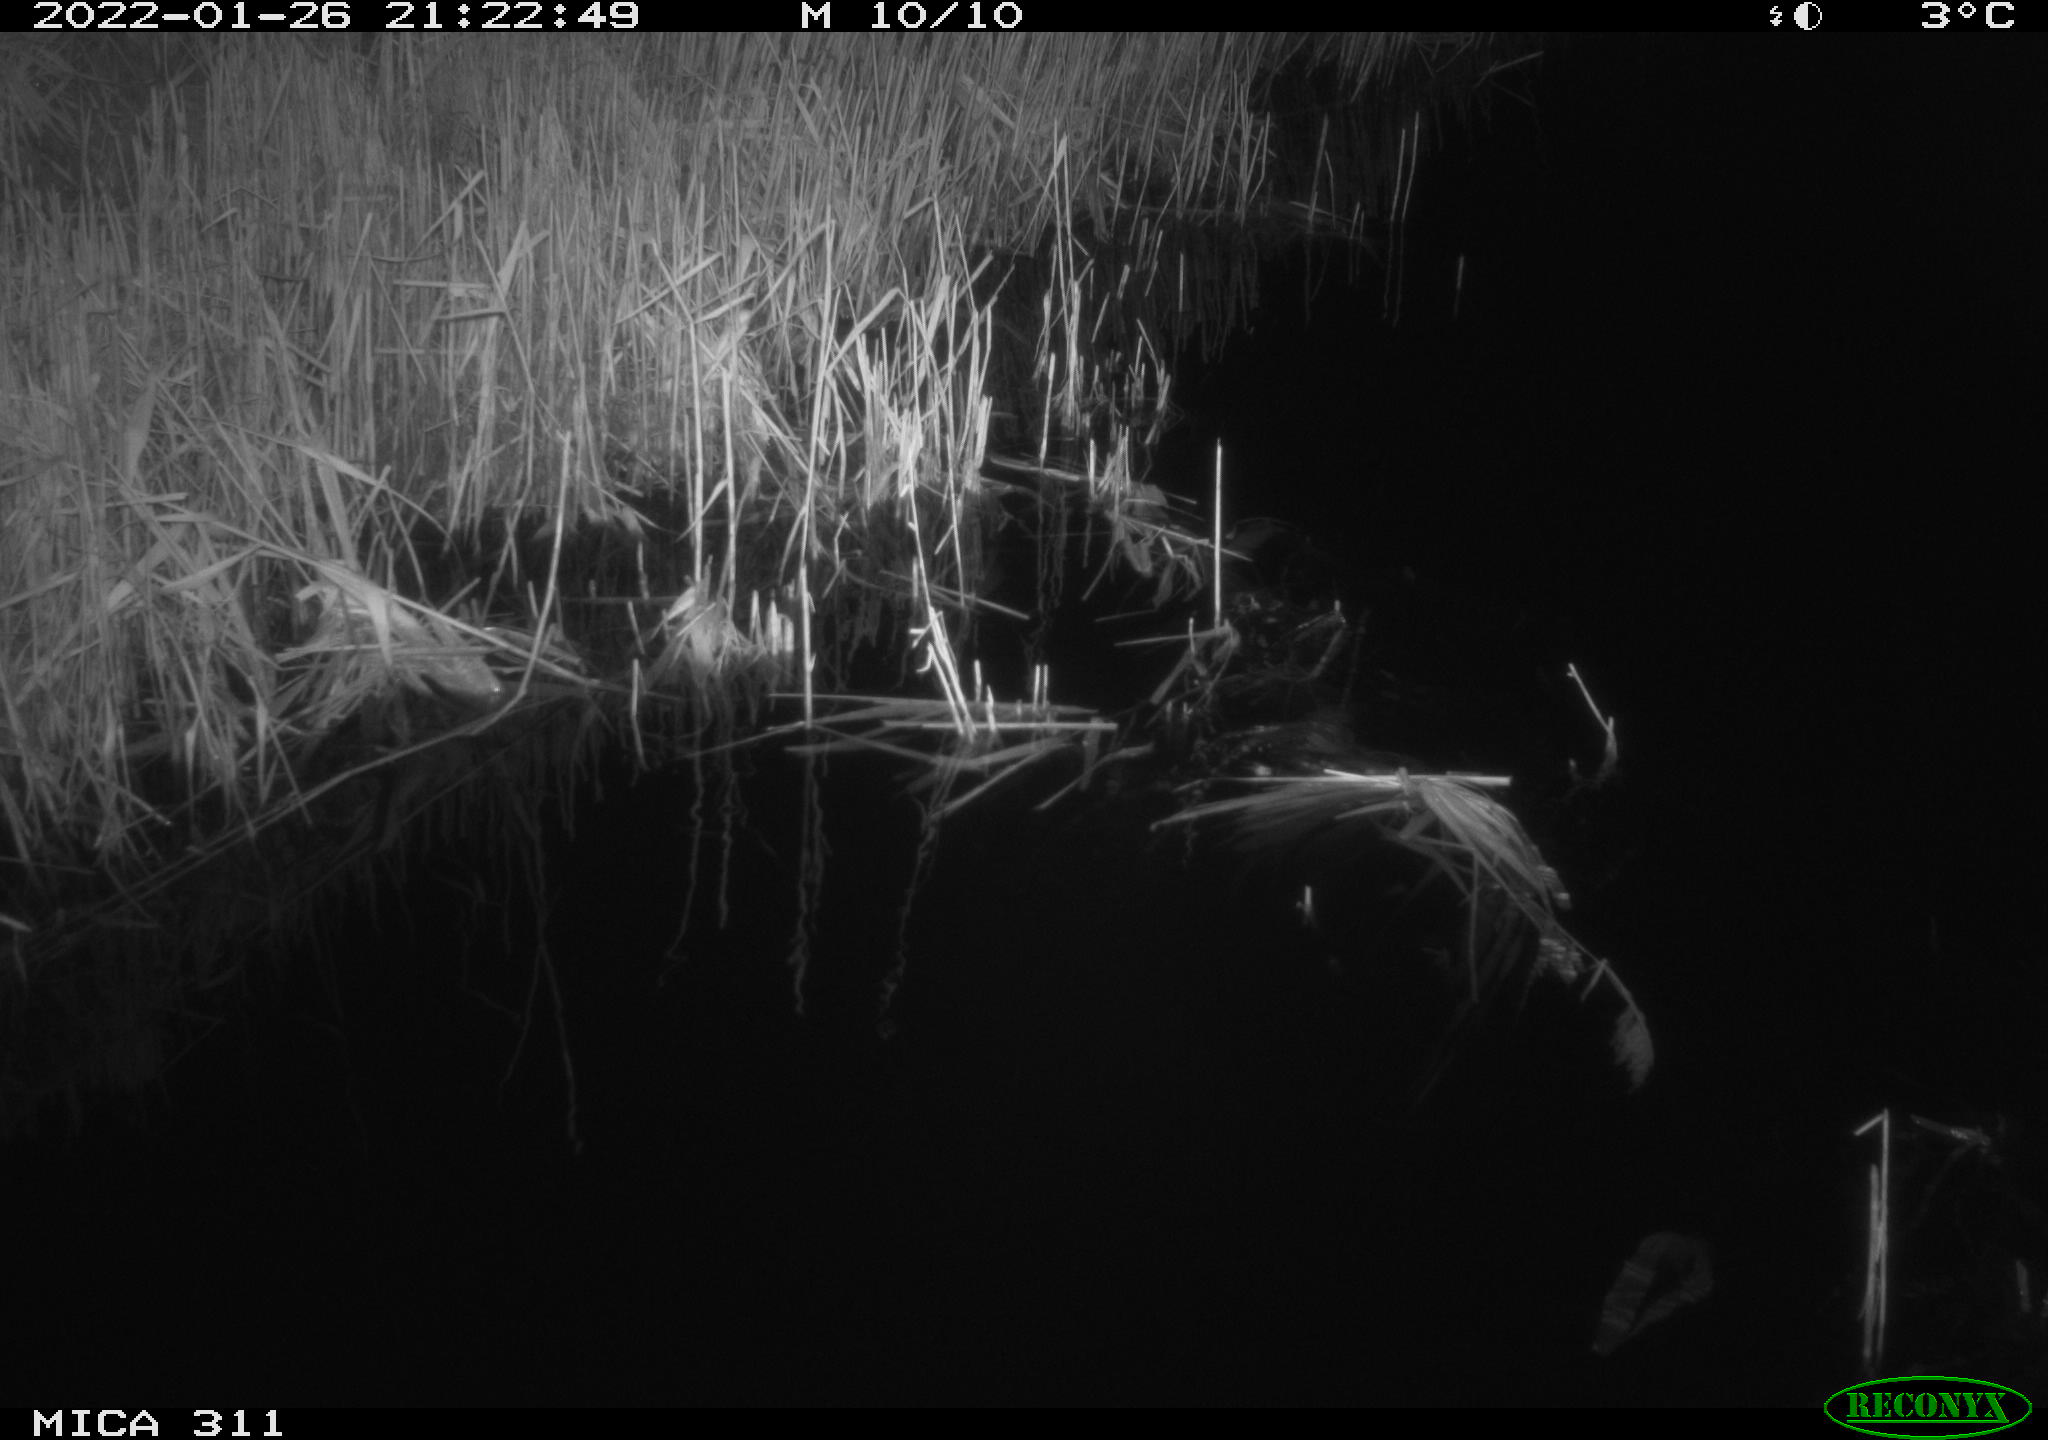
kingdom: Animalia
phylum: Chordata
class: Mammalia
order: Rodentia
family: Muridae
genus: Rattus
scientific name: Rattus norvegicus
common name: Brown rat
